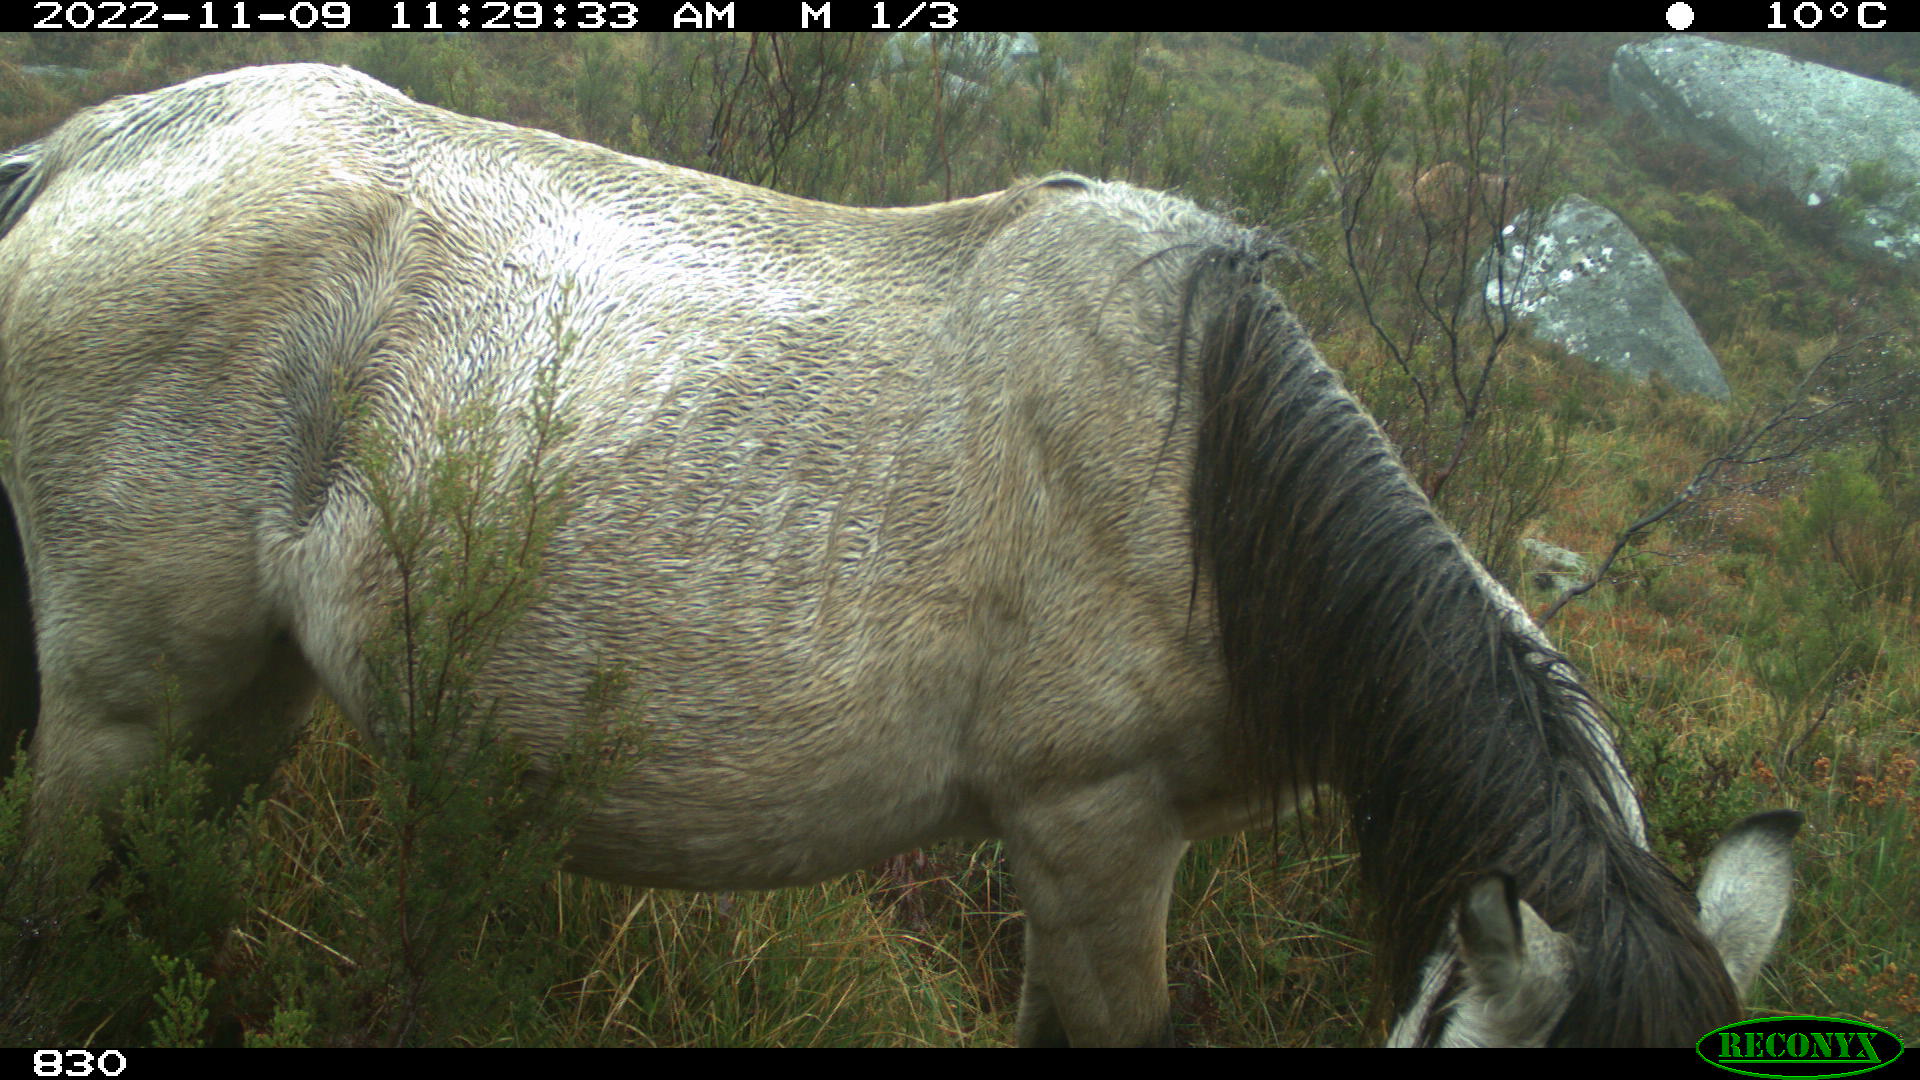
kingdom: Animalia
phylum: Chordata
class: Mammalia
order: Perissodactyla
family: Equidae
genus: Equus
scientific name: Equus caballus
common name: Horse
